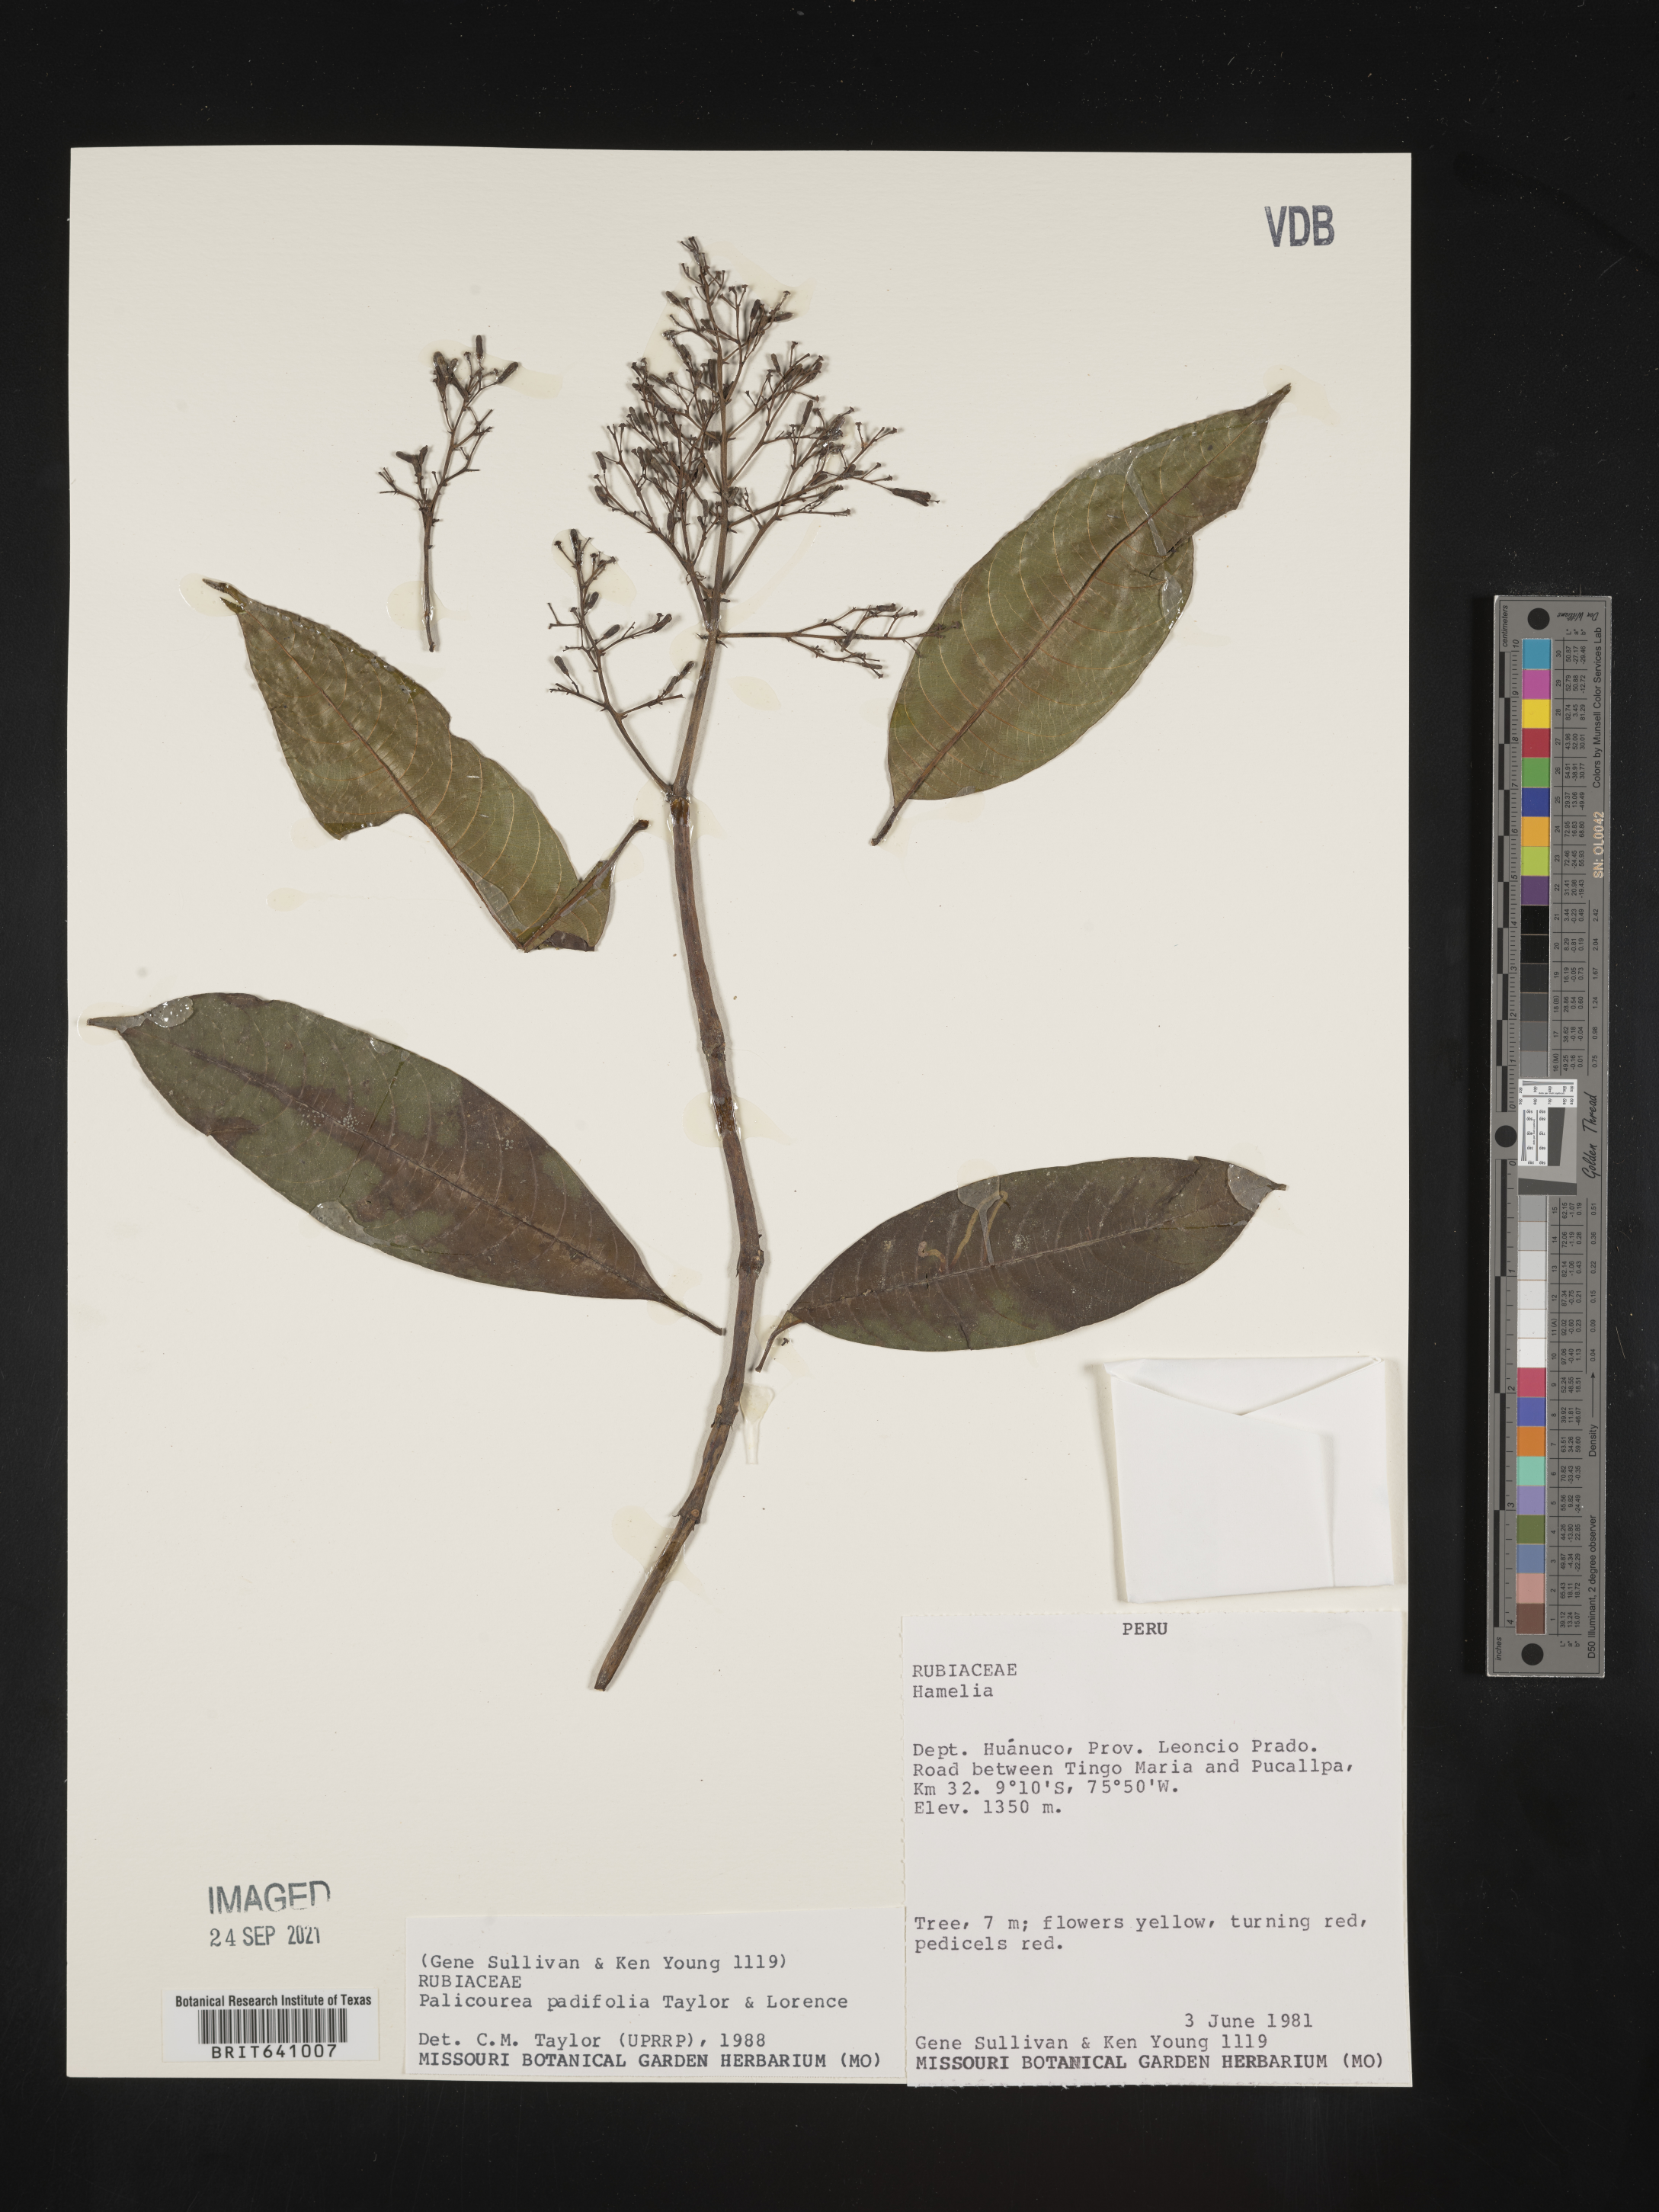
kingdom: Plantae
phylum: Tracheophyta
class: Magnoliopsida
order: Gentianales
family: Rubiaceae
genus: Palicourea
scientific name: Palicourea
